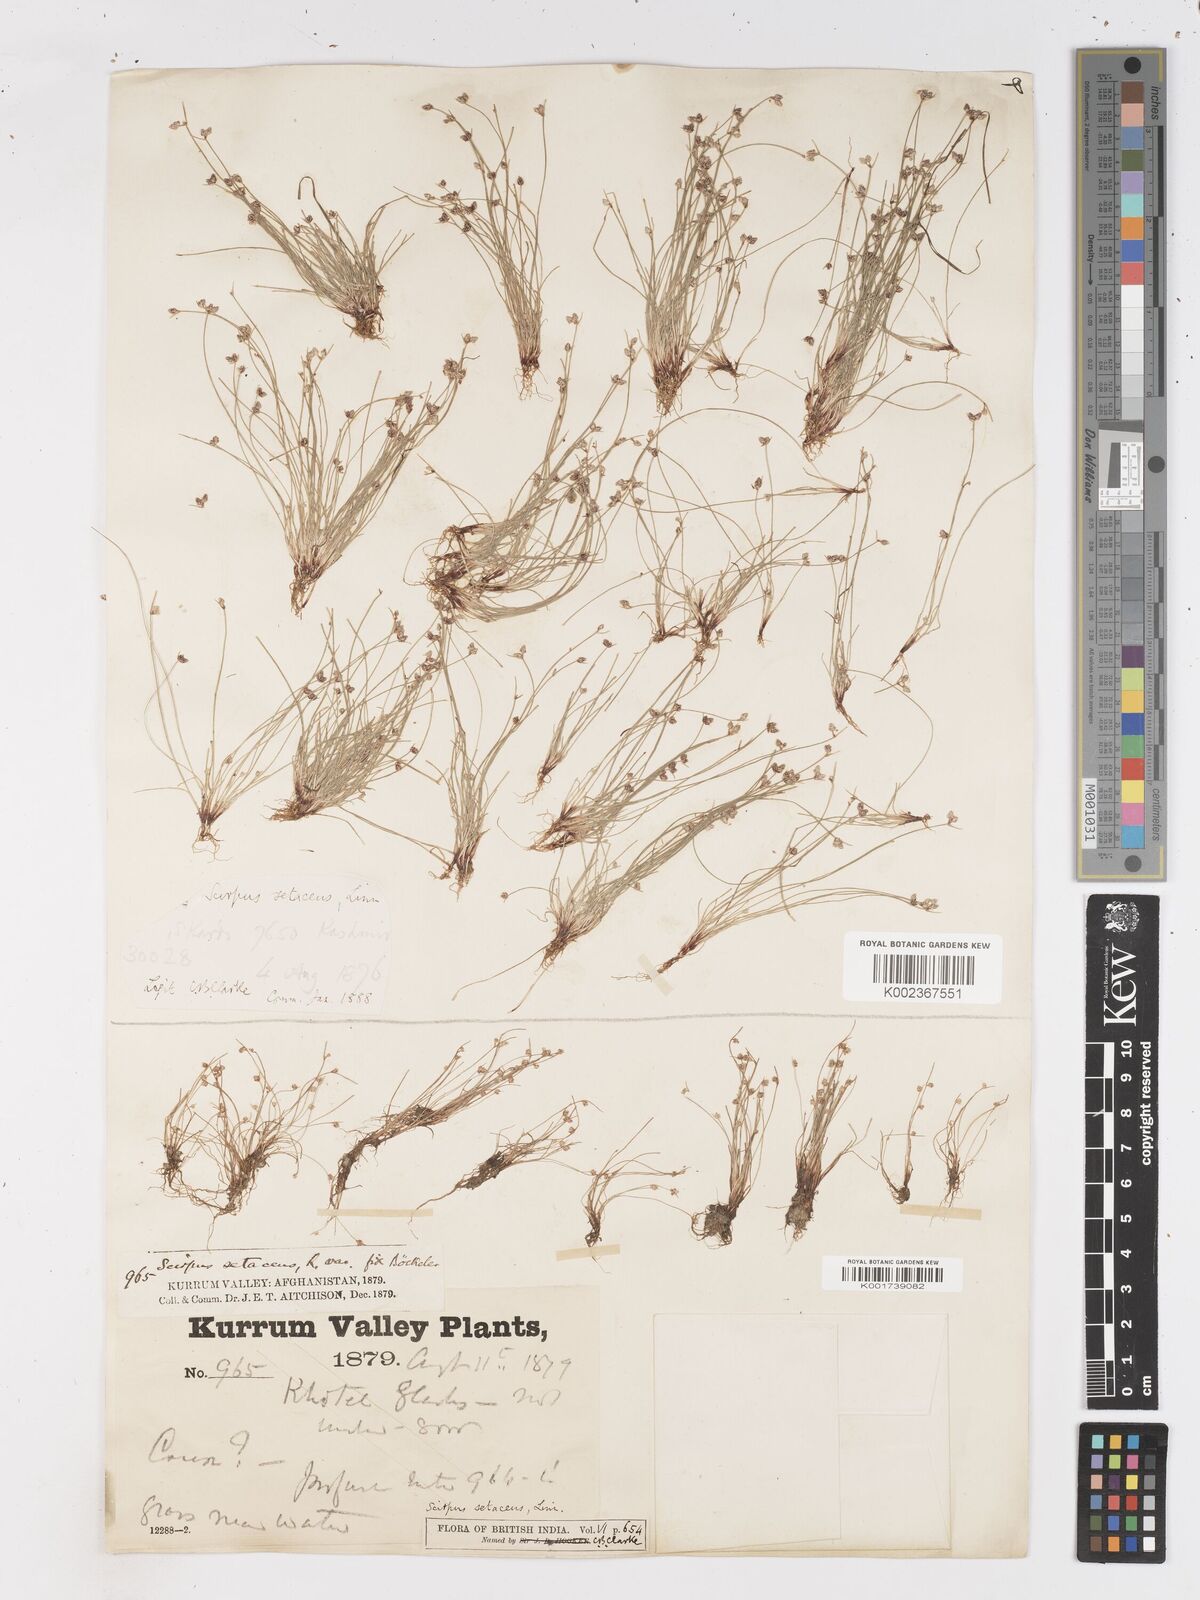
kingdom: Plantae
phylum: Tracheophyta
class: Liliopsida
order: Poales
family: Cyperaceae
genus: Isolepis
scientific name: Isolepis setacea
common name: Bristle club-rush
